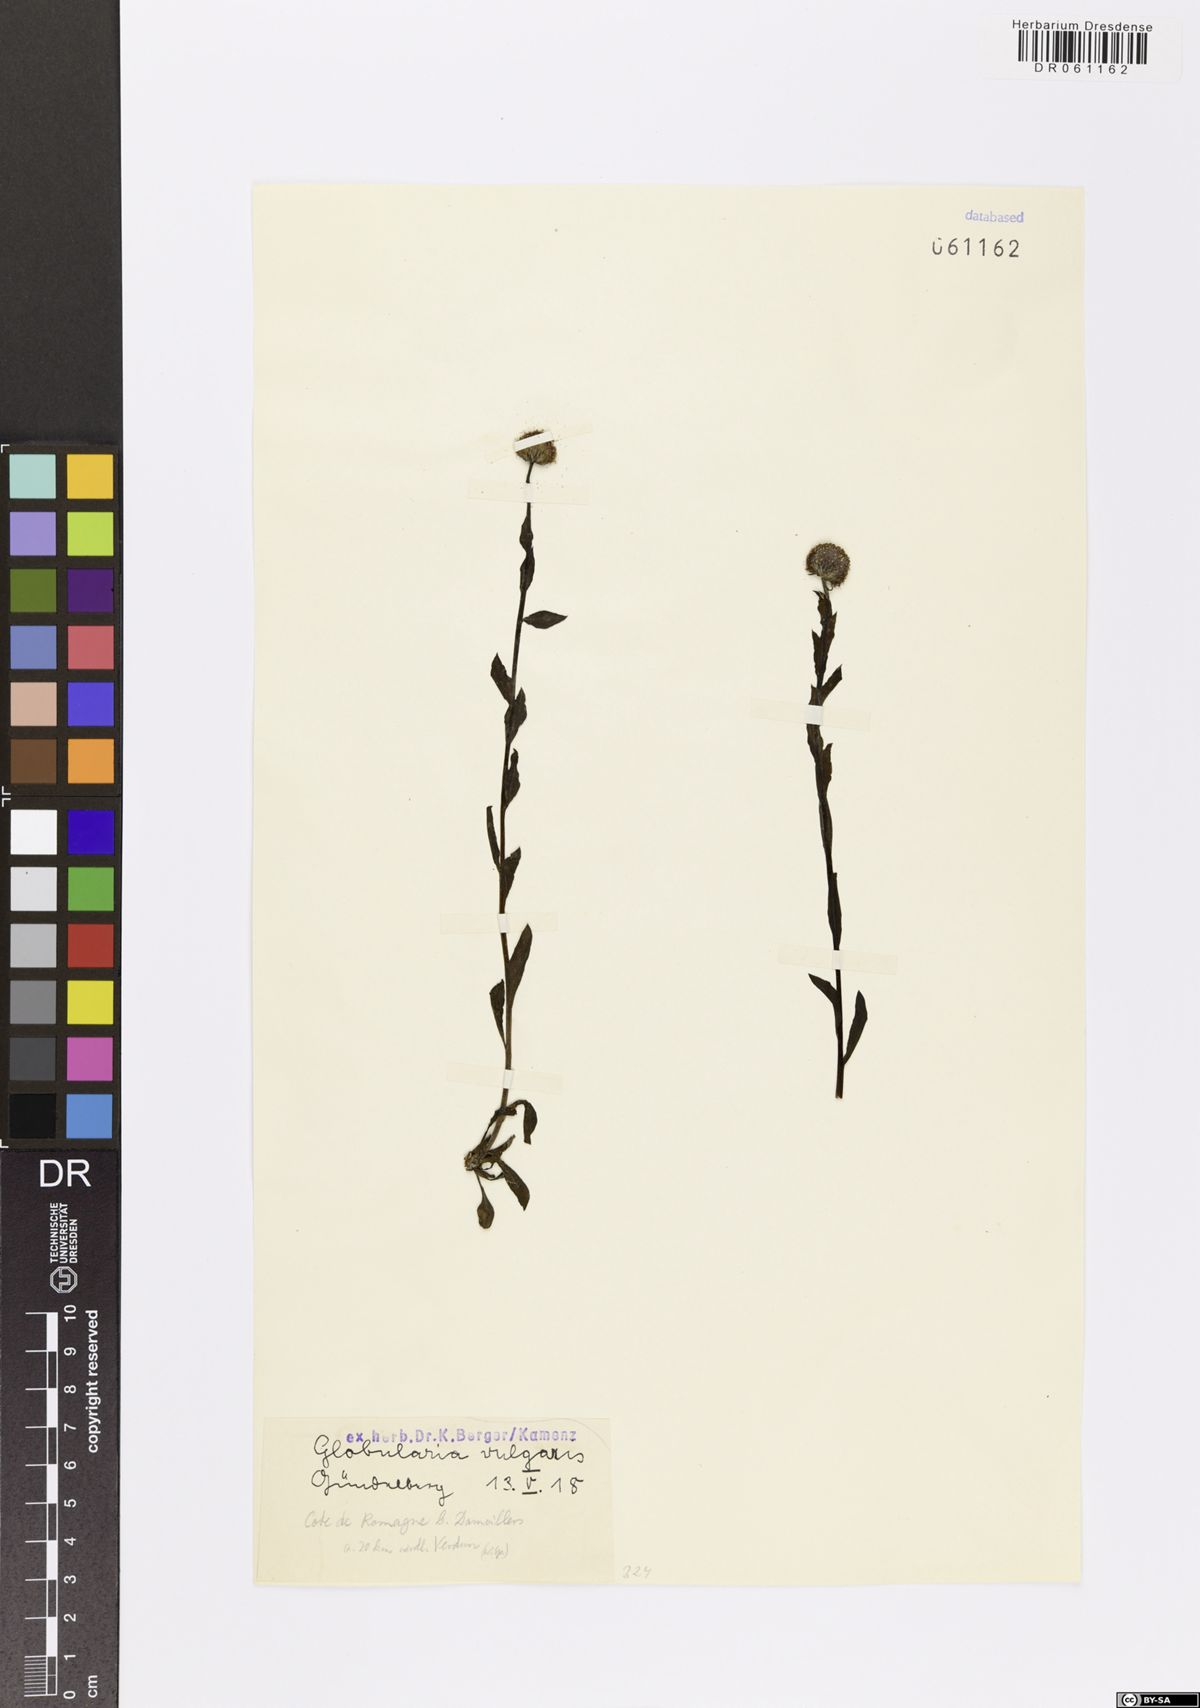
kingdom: Plantae
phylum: Tracheophyta
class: Magnoliopsida
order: Lamiales
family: Plantaginaceae
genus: Globularia
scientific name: Globularia vulgaris
